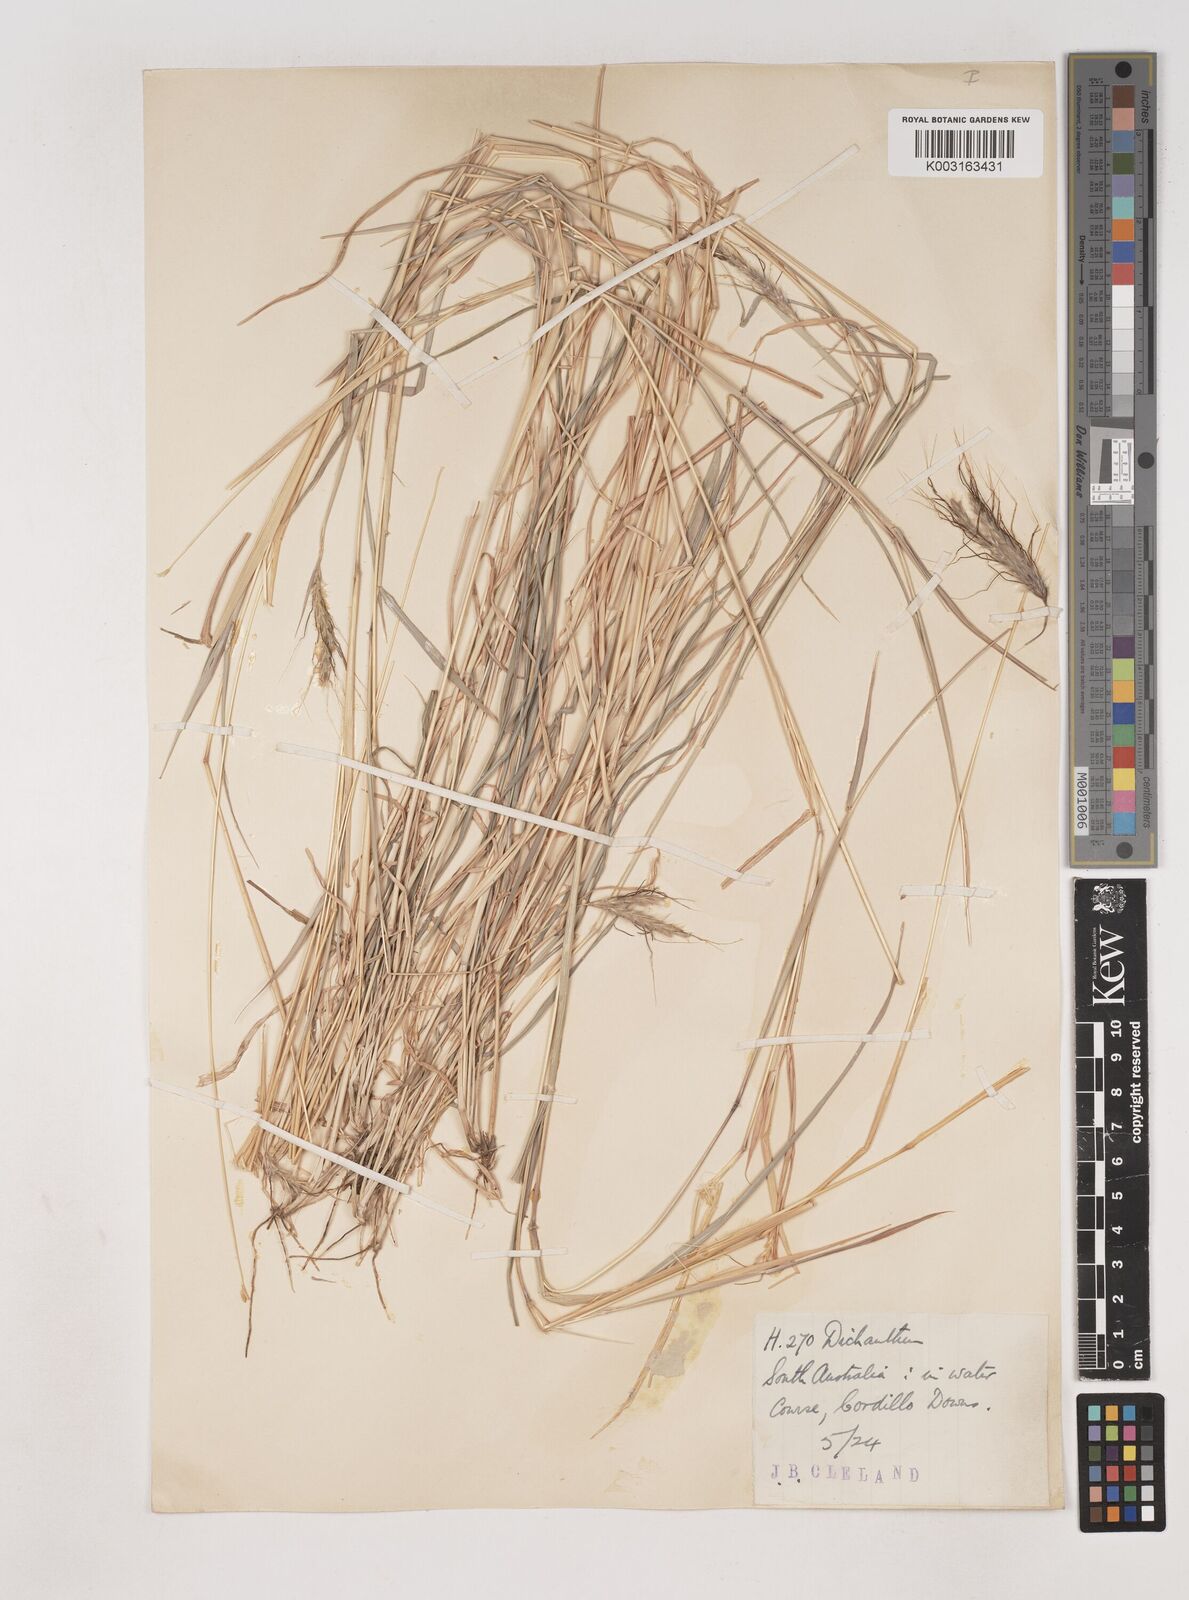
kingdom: Plantae
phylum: Tracheophyta
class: Liliopsida
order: Poales
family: Poaceae
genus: Dichanthium
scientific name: Dichanthium sericeum
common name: Silky bluestem
